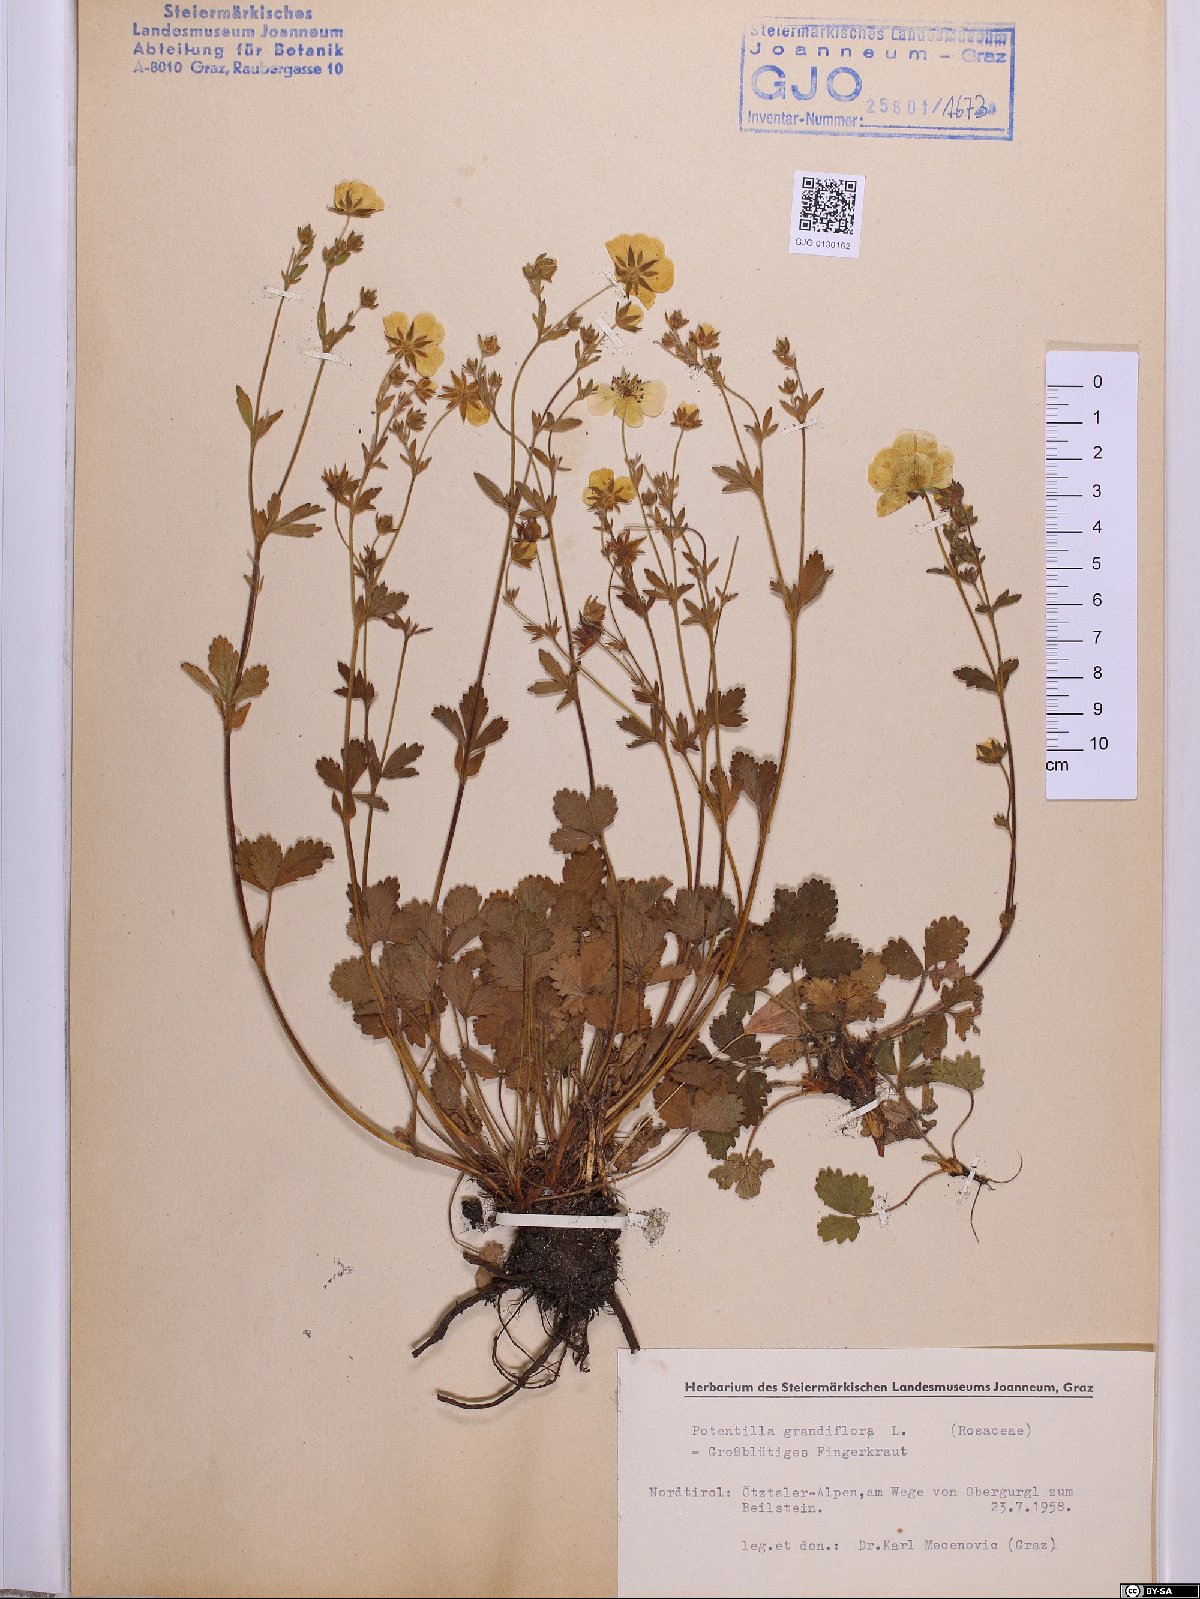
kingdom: Plantae
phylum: Tracheophyta
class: Magnoliopsida
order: Rosales
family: Rosaceae
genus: Potentilla
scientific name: Potentilla grandiflora
